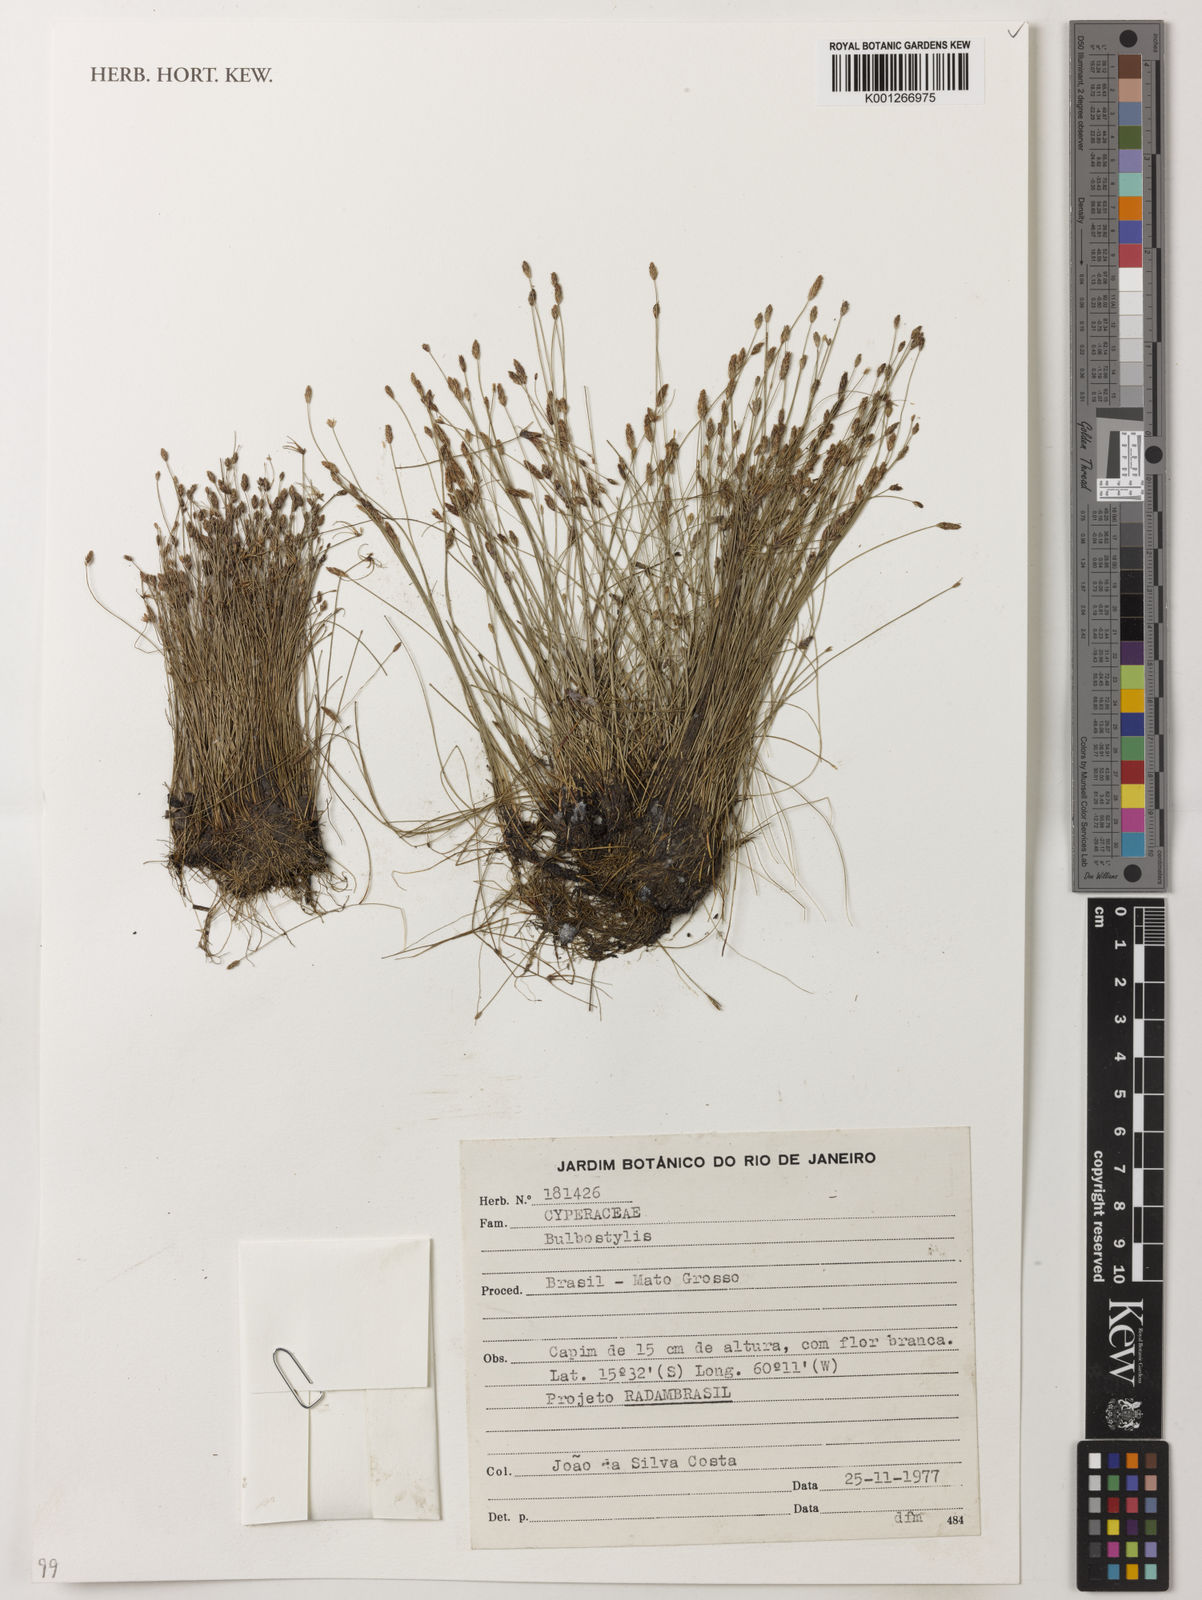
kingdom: Plantae
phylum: Tracheophyta
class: Liliopsida
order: Poales
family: Cyperaceae
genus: Bulbostylis
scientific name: Bulbostylis
